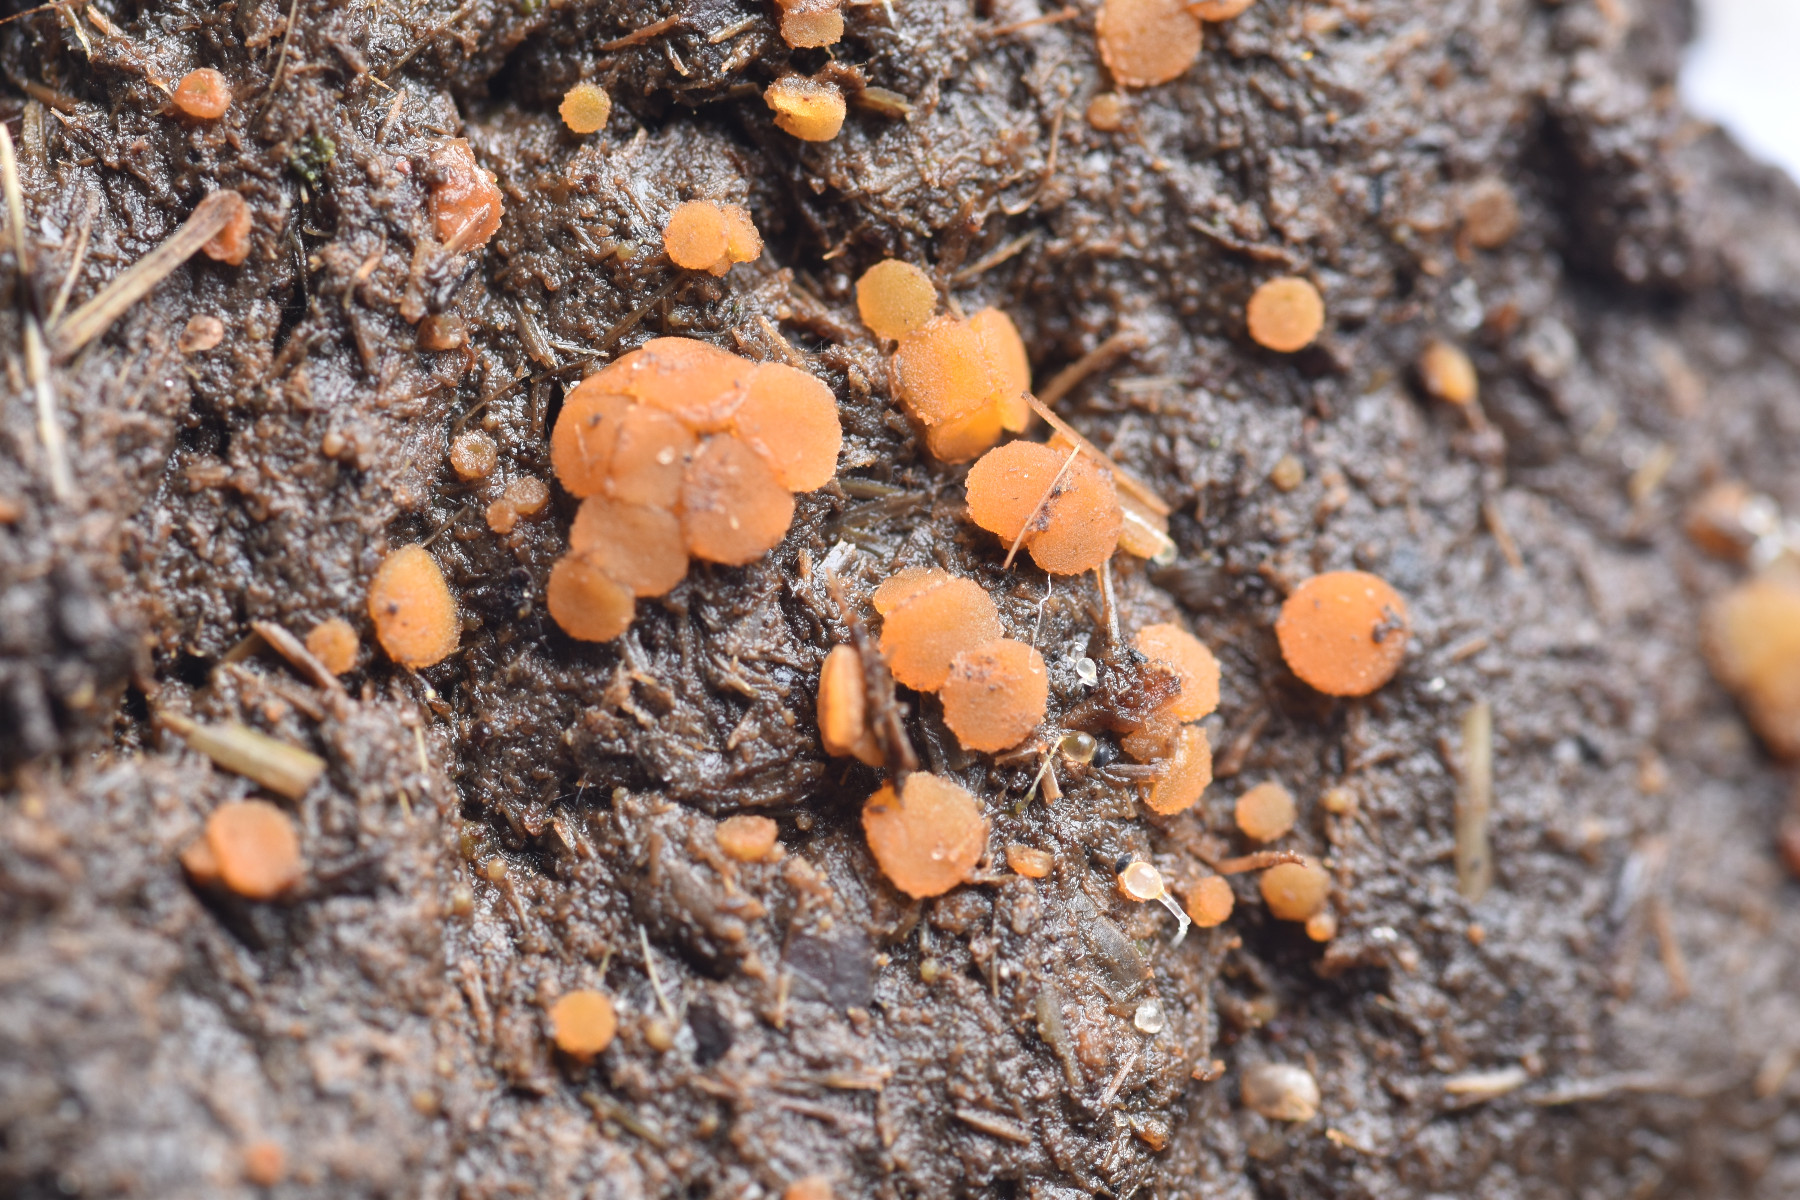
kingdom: Fungi
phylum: Ascomycota
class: Pezizomycetes
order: Pezizales
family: Pyronemataceae
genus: Cheilymenia
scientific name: Cheilymenia granulata
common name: møgbæger
